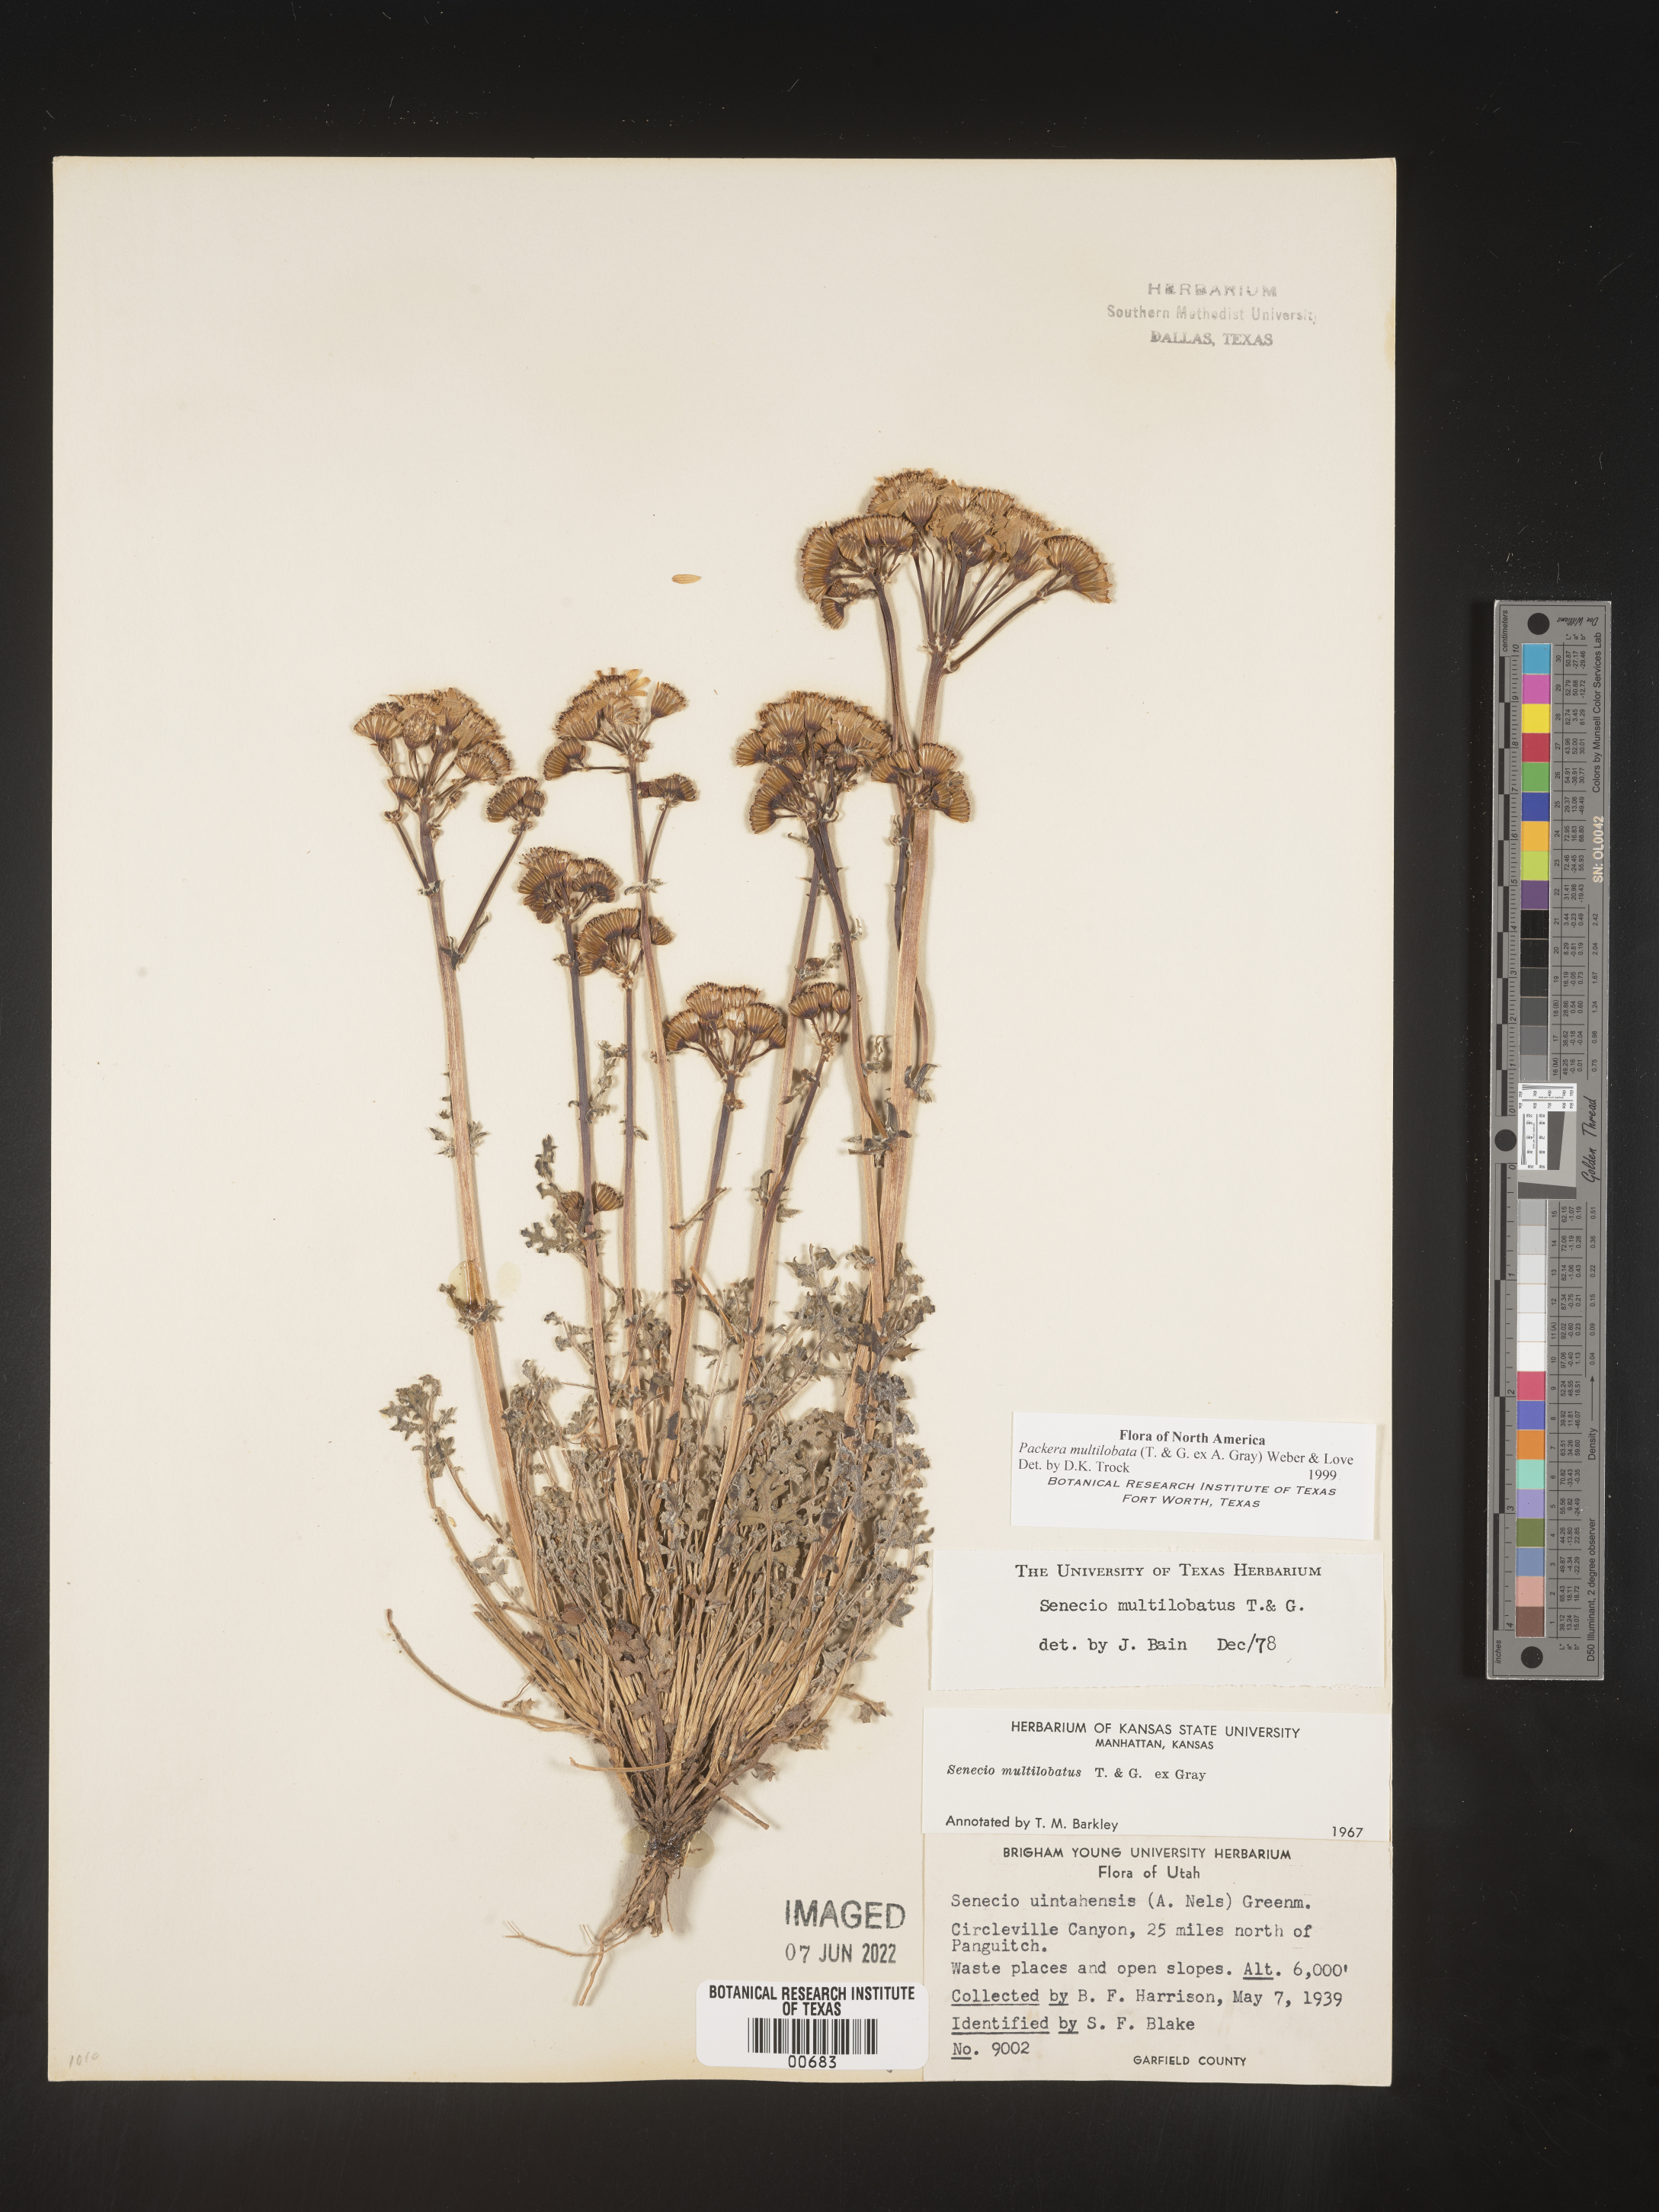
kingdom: Plantae
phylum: Tracheophyta
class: Magnoliopsida
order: Asterales
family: Asteraceae
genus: Packera
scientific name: Packera multilobata
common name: Lobe-leaf groundsel
